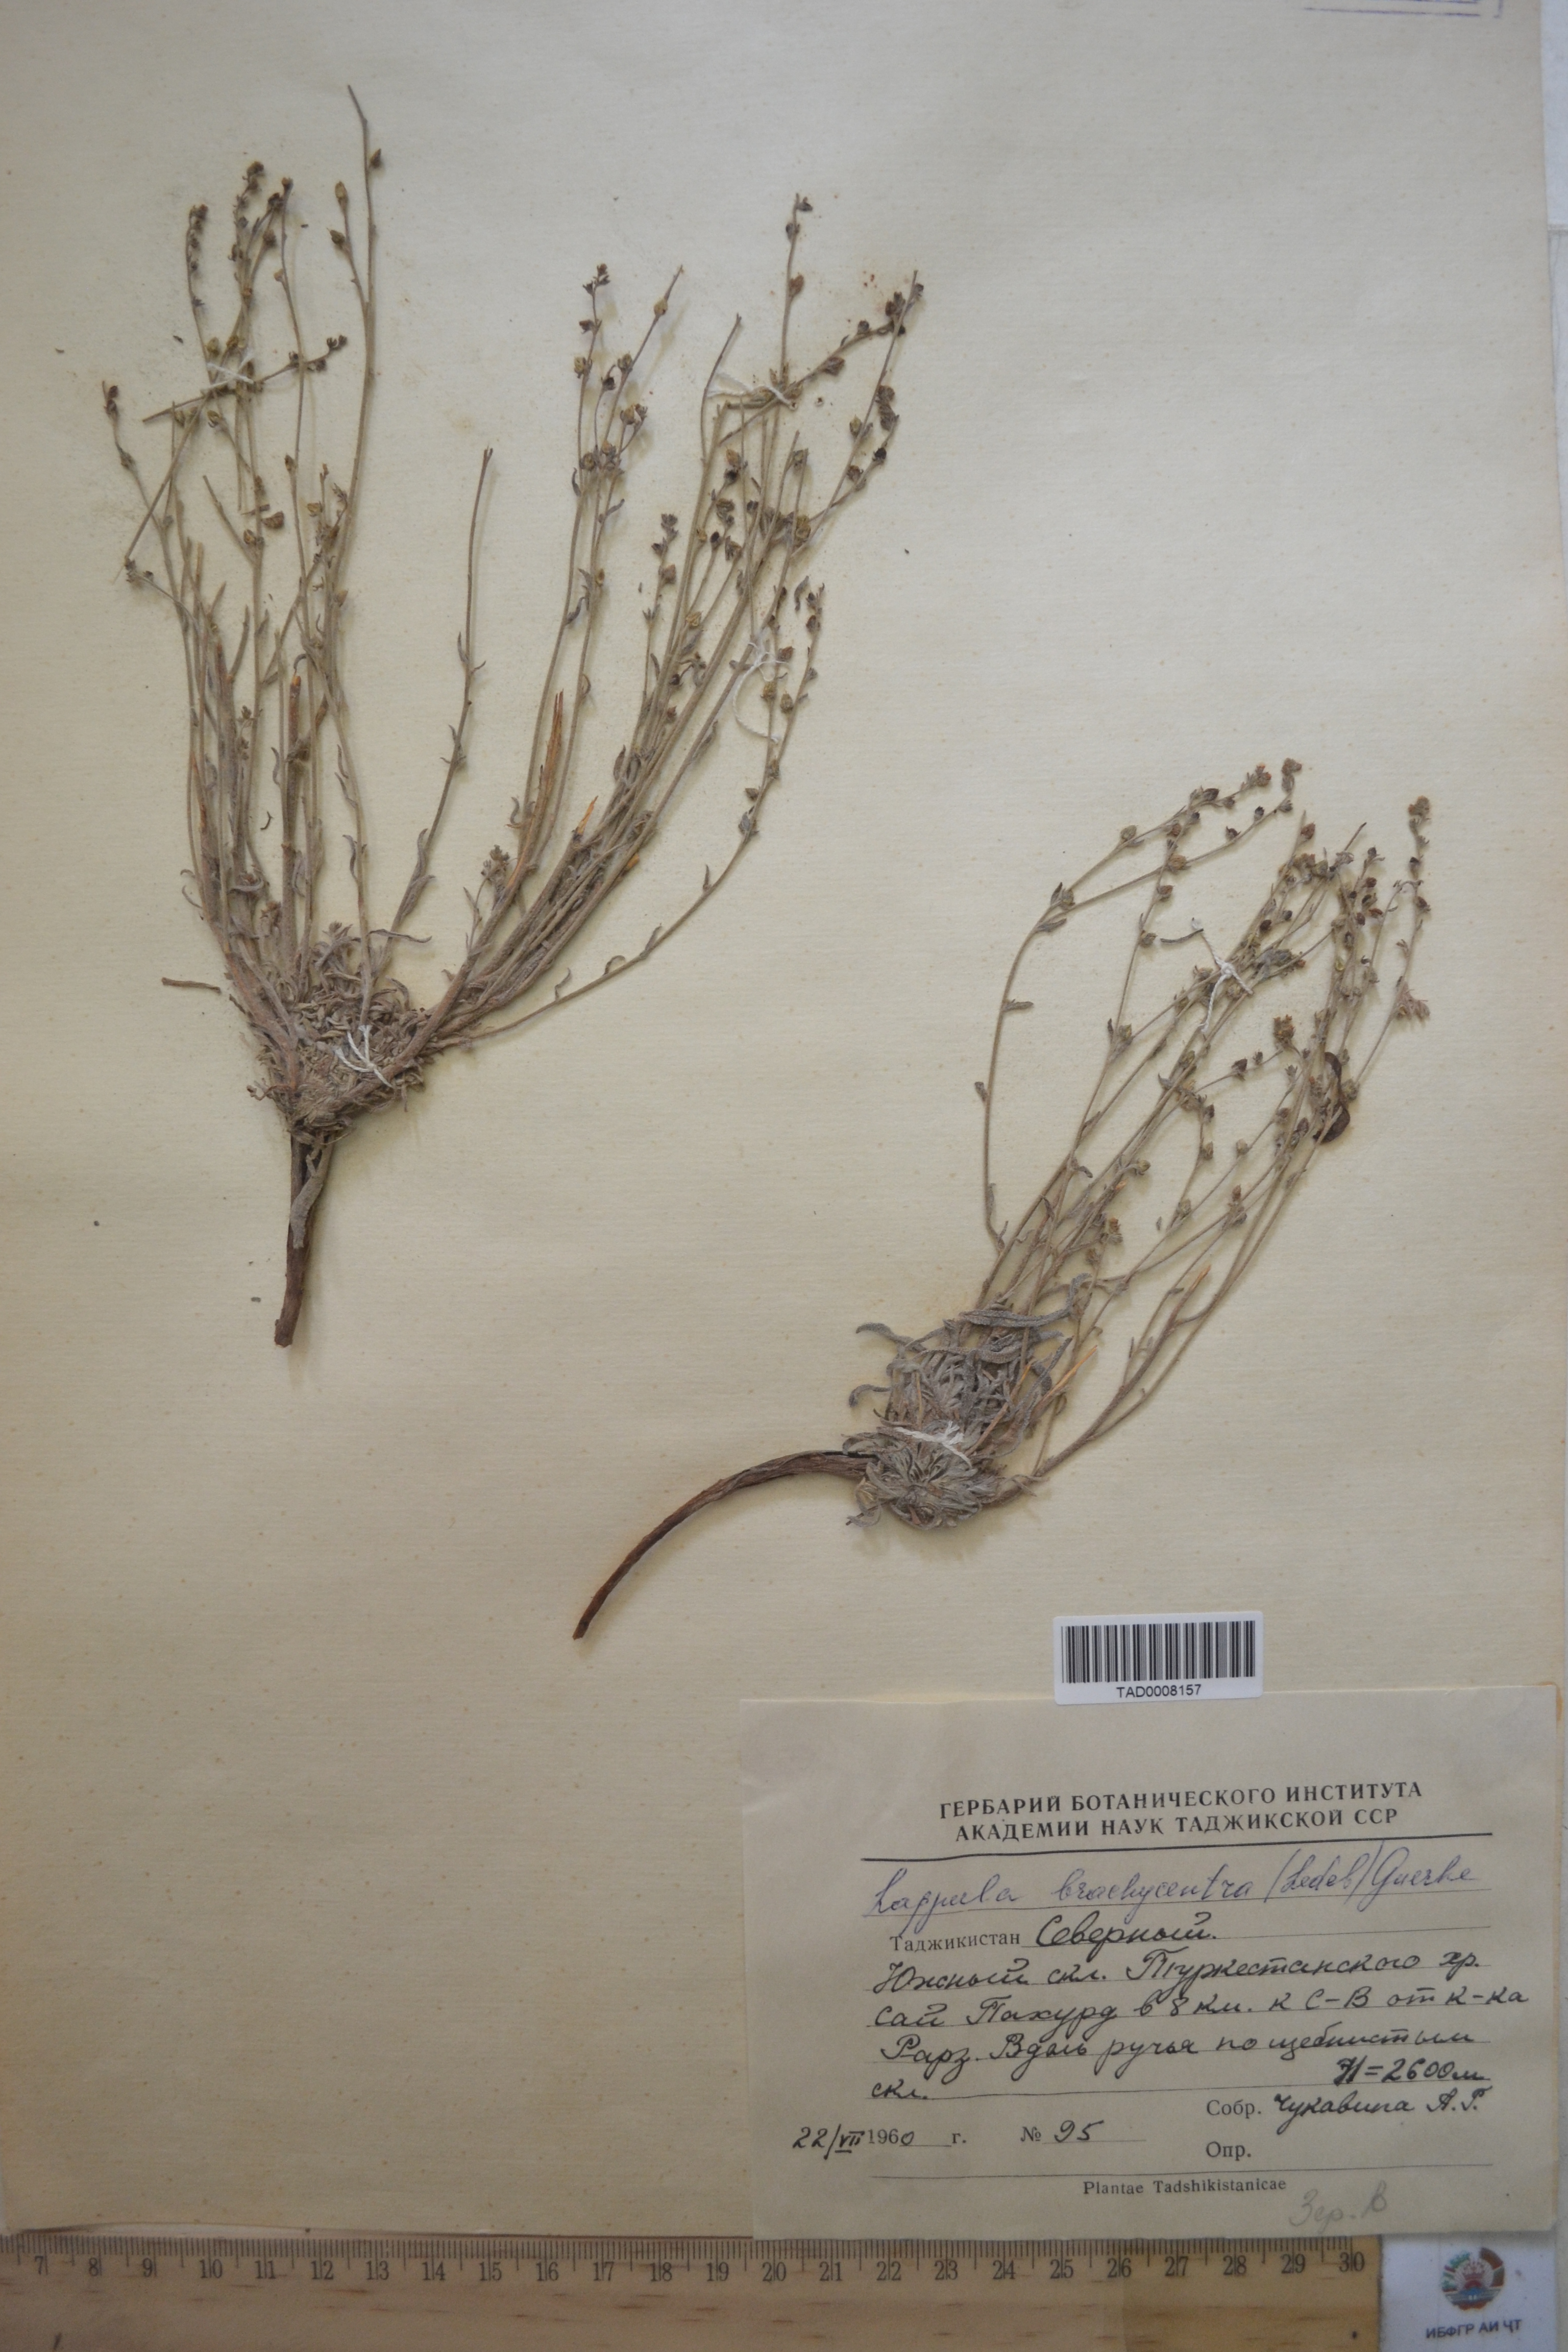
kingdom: Plantae
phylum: Tracheophyta
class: Magnoliopsida
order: Boraginales
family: Boraginaceae
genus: Lappula
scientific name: Lappula brachycentra
